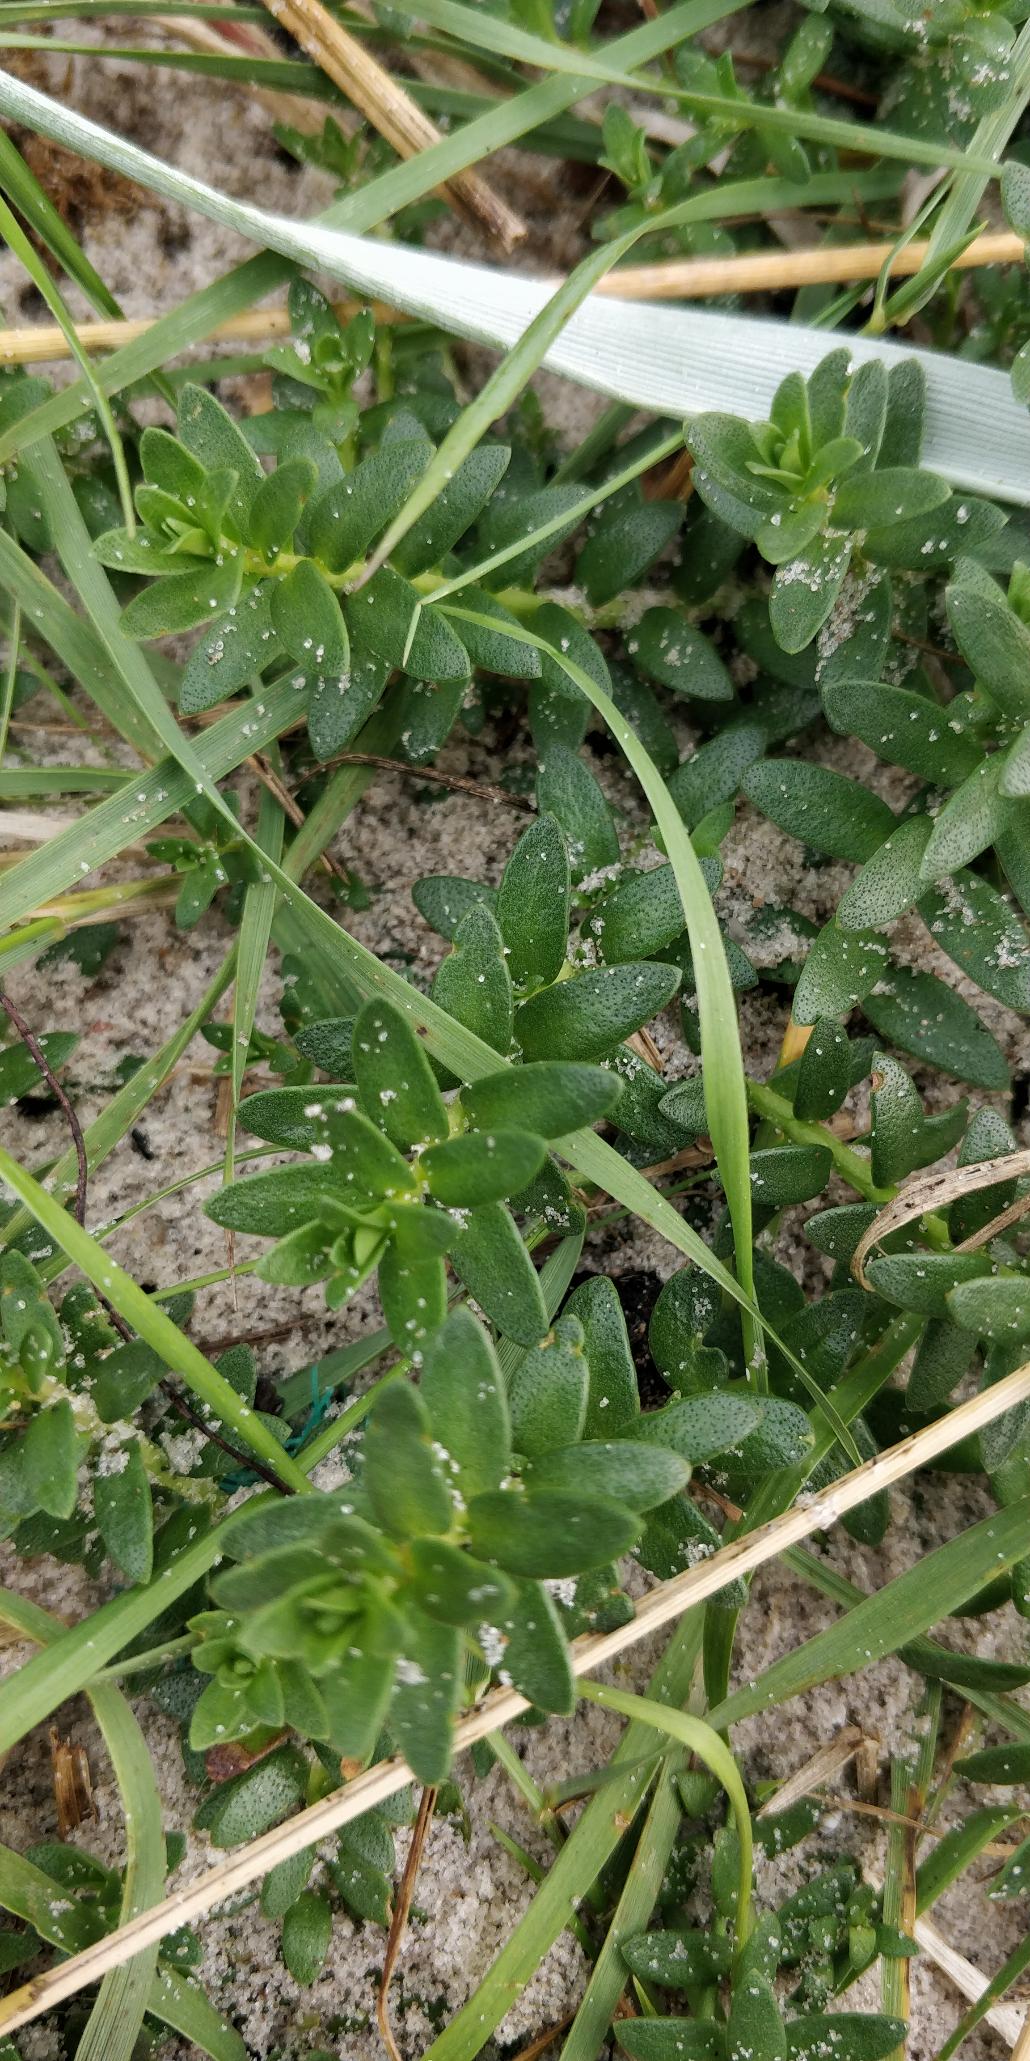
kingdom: Plantae
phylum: Tracheophyta
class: Magnoliopsida
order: Caryophyllales
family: Caryophyllaceae
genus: Honckenya
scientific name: Honckenya peploides
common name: Strandarve
